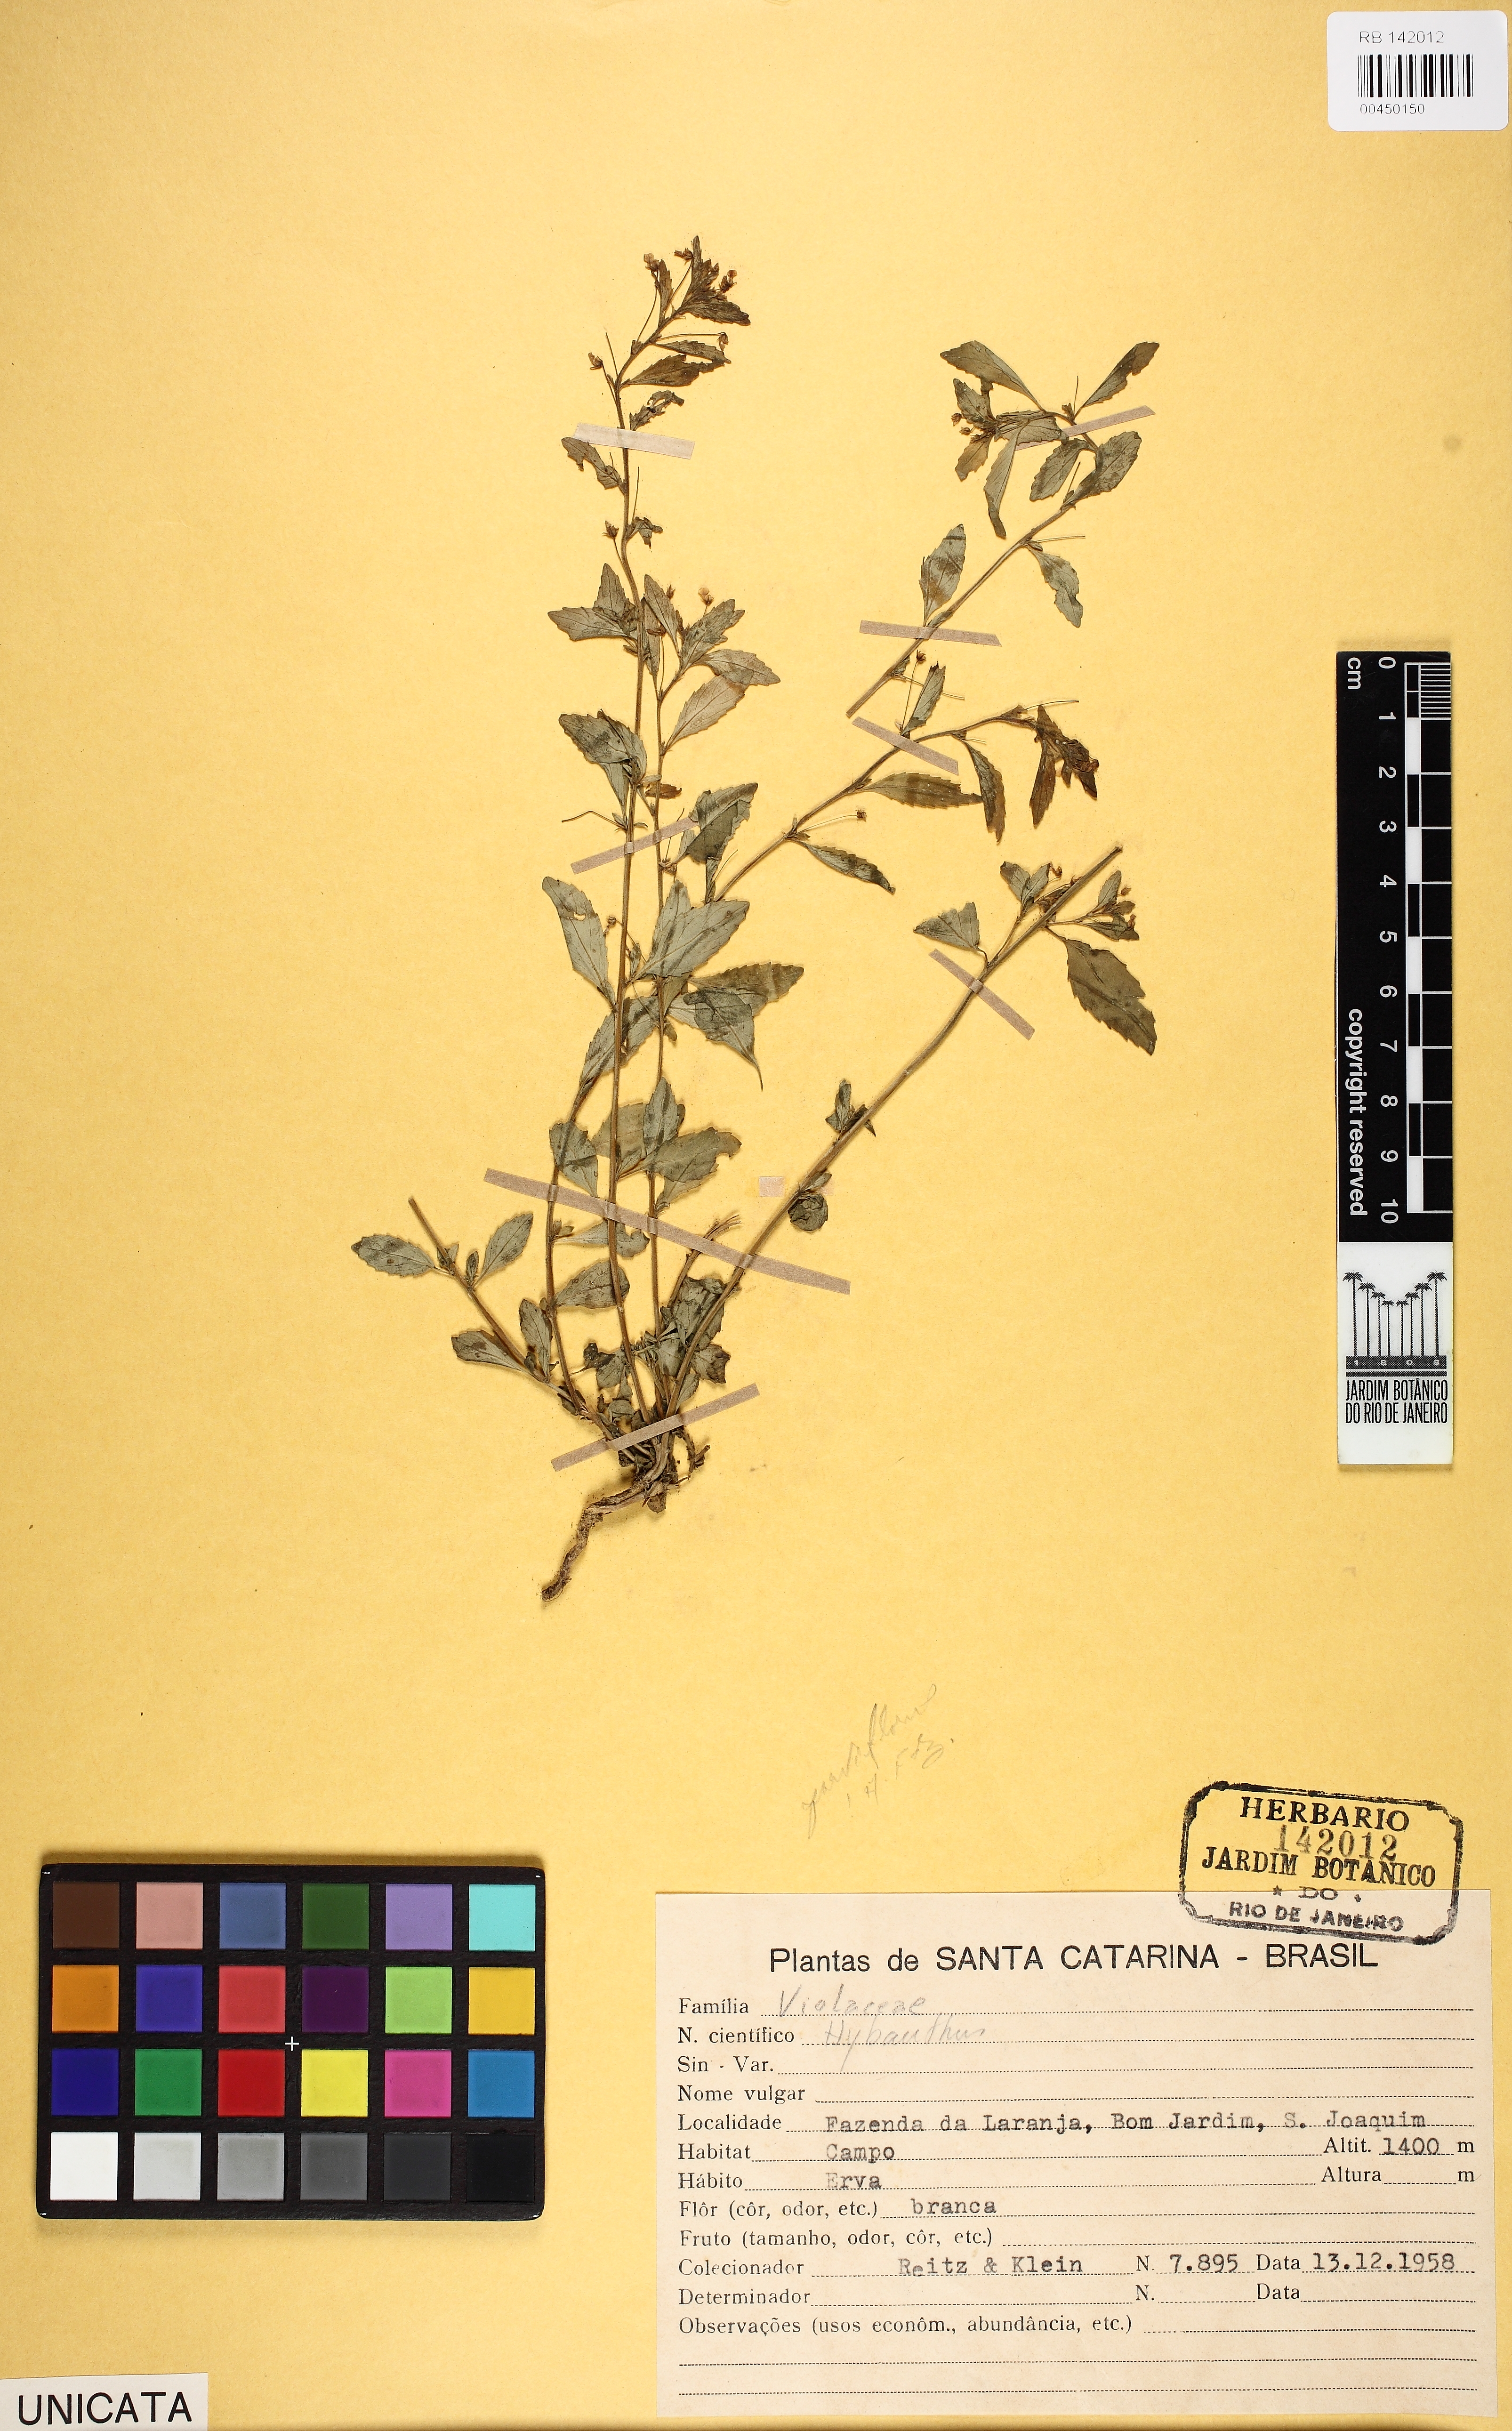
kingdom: Plantae
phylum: Tracheophyta
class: Magnoliopsida
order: Malpighiales
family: Violaceae
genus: Pombalia
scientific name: Pombalia parviflora
